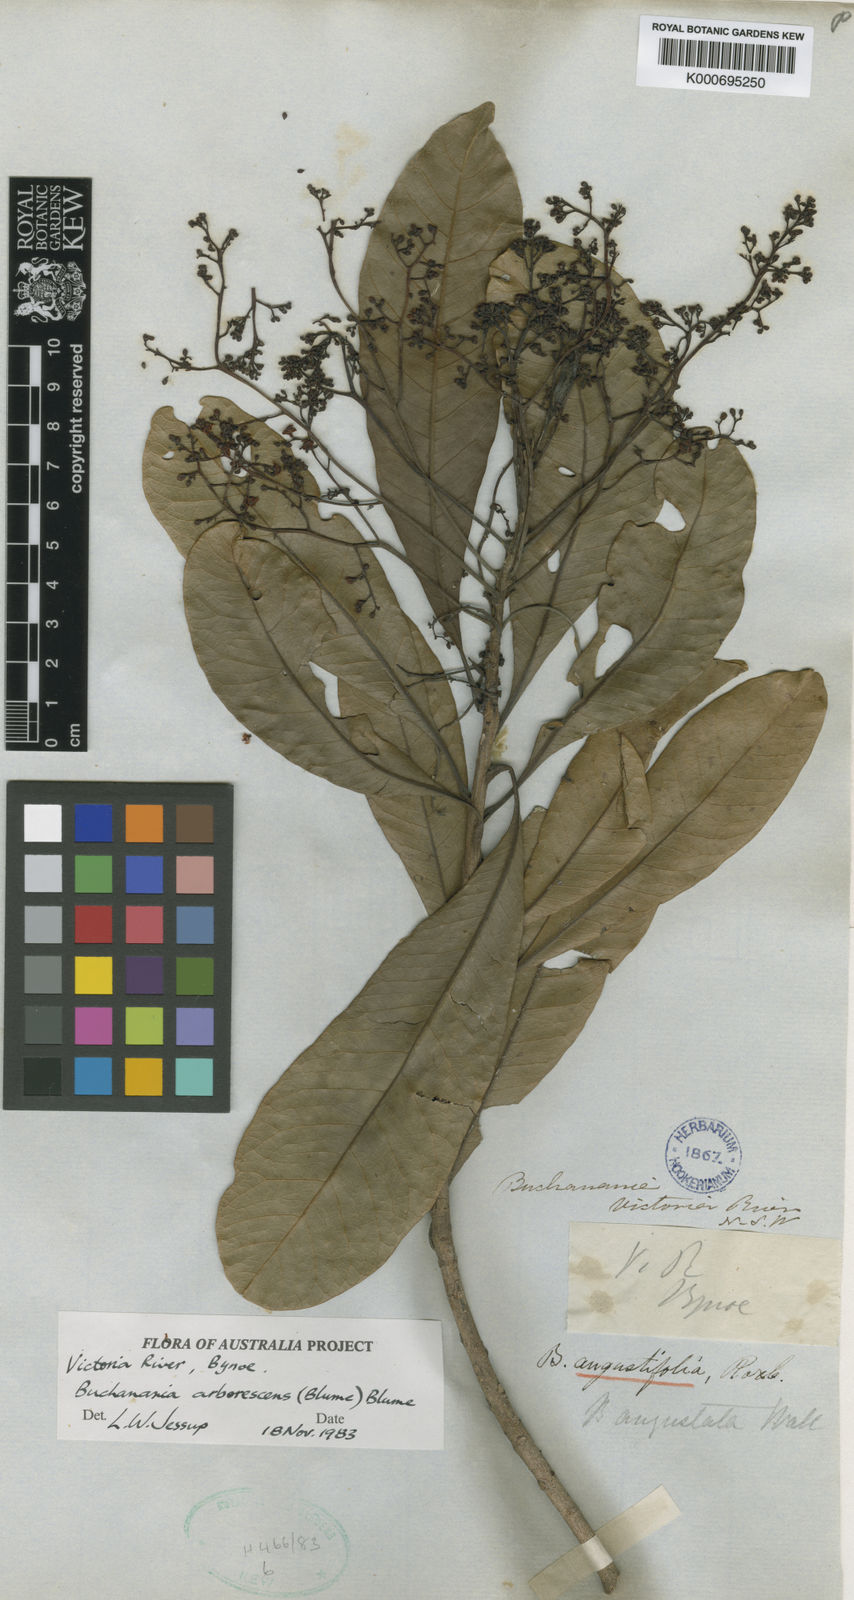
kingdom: Plantae
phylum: Tracheophyta
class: Magnoliopsida
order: Sapindales
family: Anacardiaceae
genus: Buchanania
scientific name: Buchanania arborescens
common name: Sparrow’s mango
